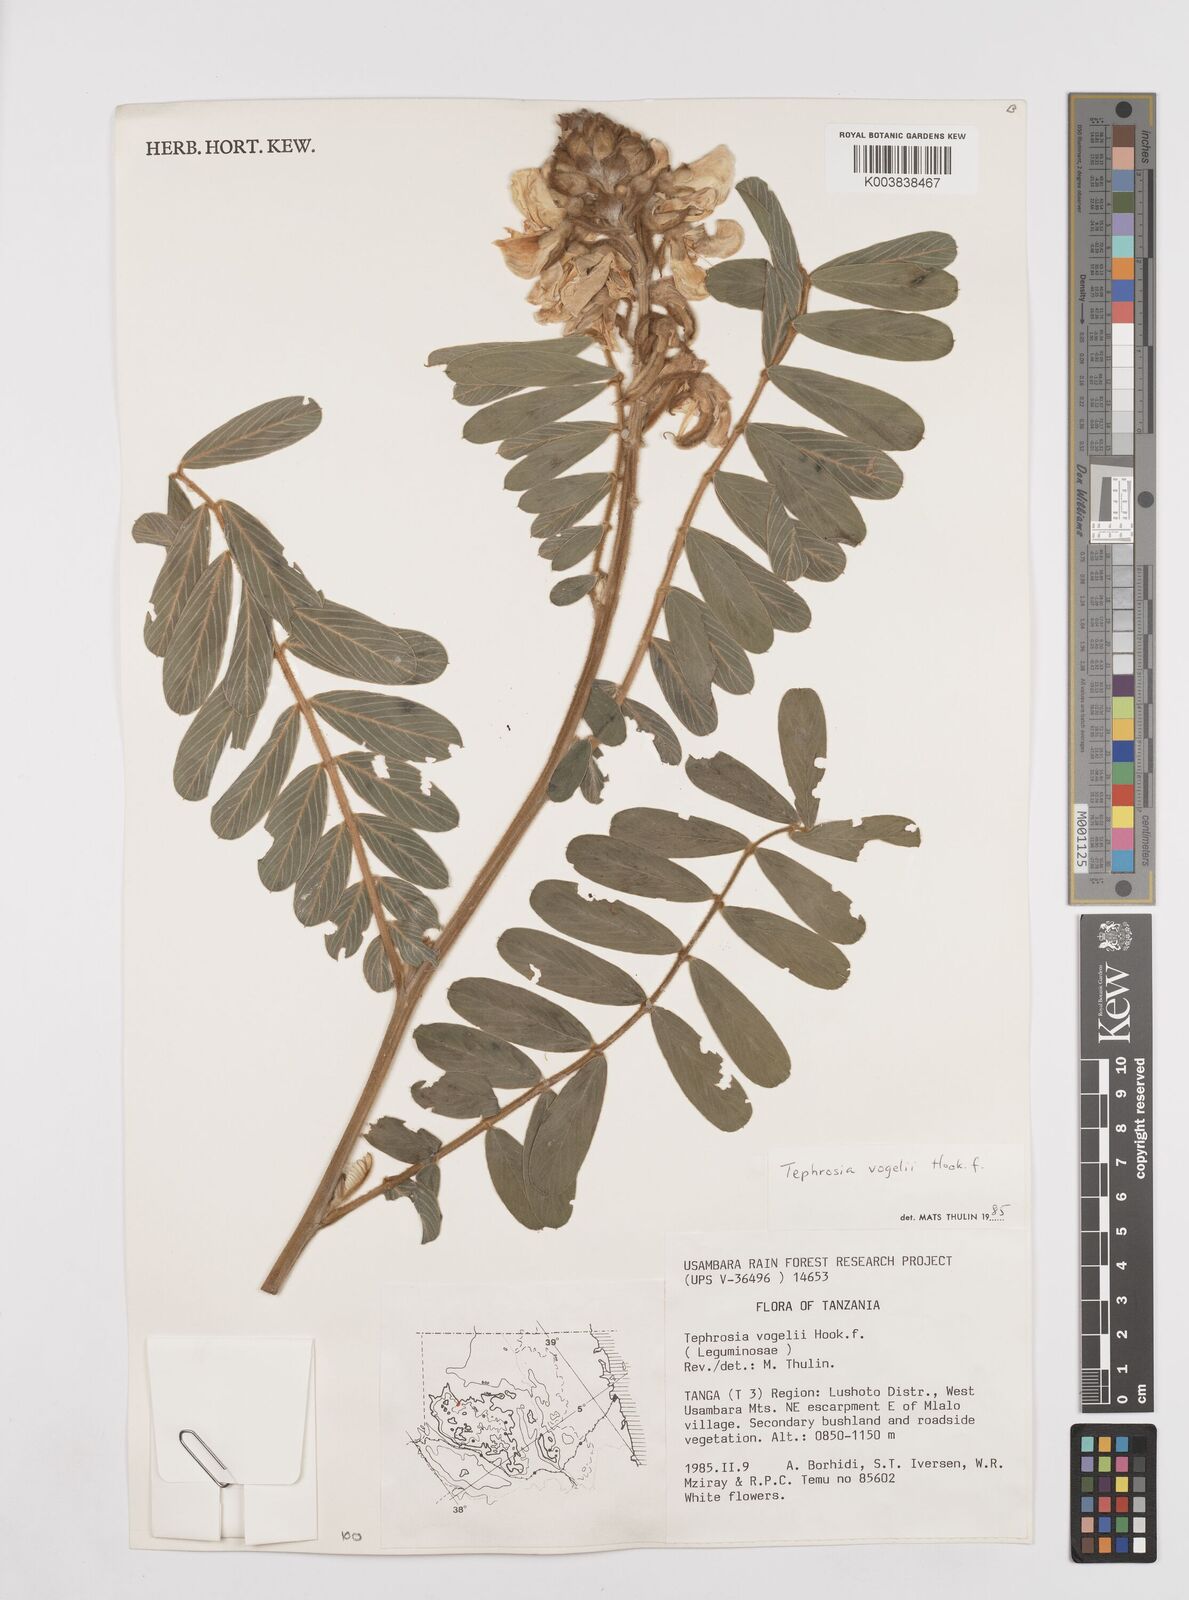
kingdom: Plantae
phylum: Tracheophyta
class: Magnoliopsida
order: Fabales
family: Fabaceae
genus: Tephrosia
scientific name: Tephrosia vogelii
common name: Vogel tephrosia
